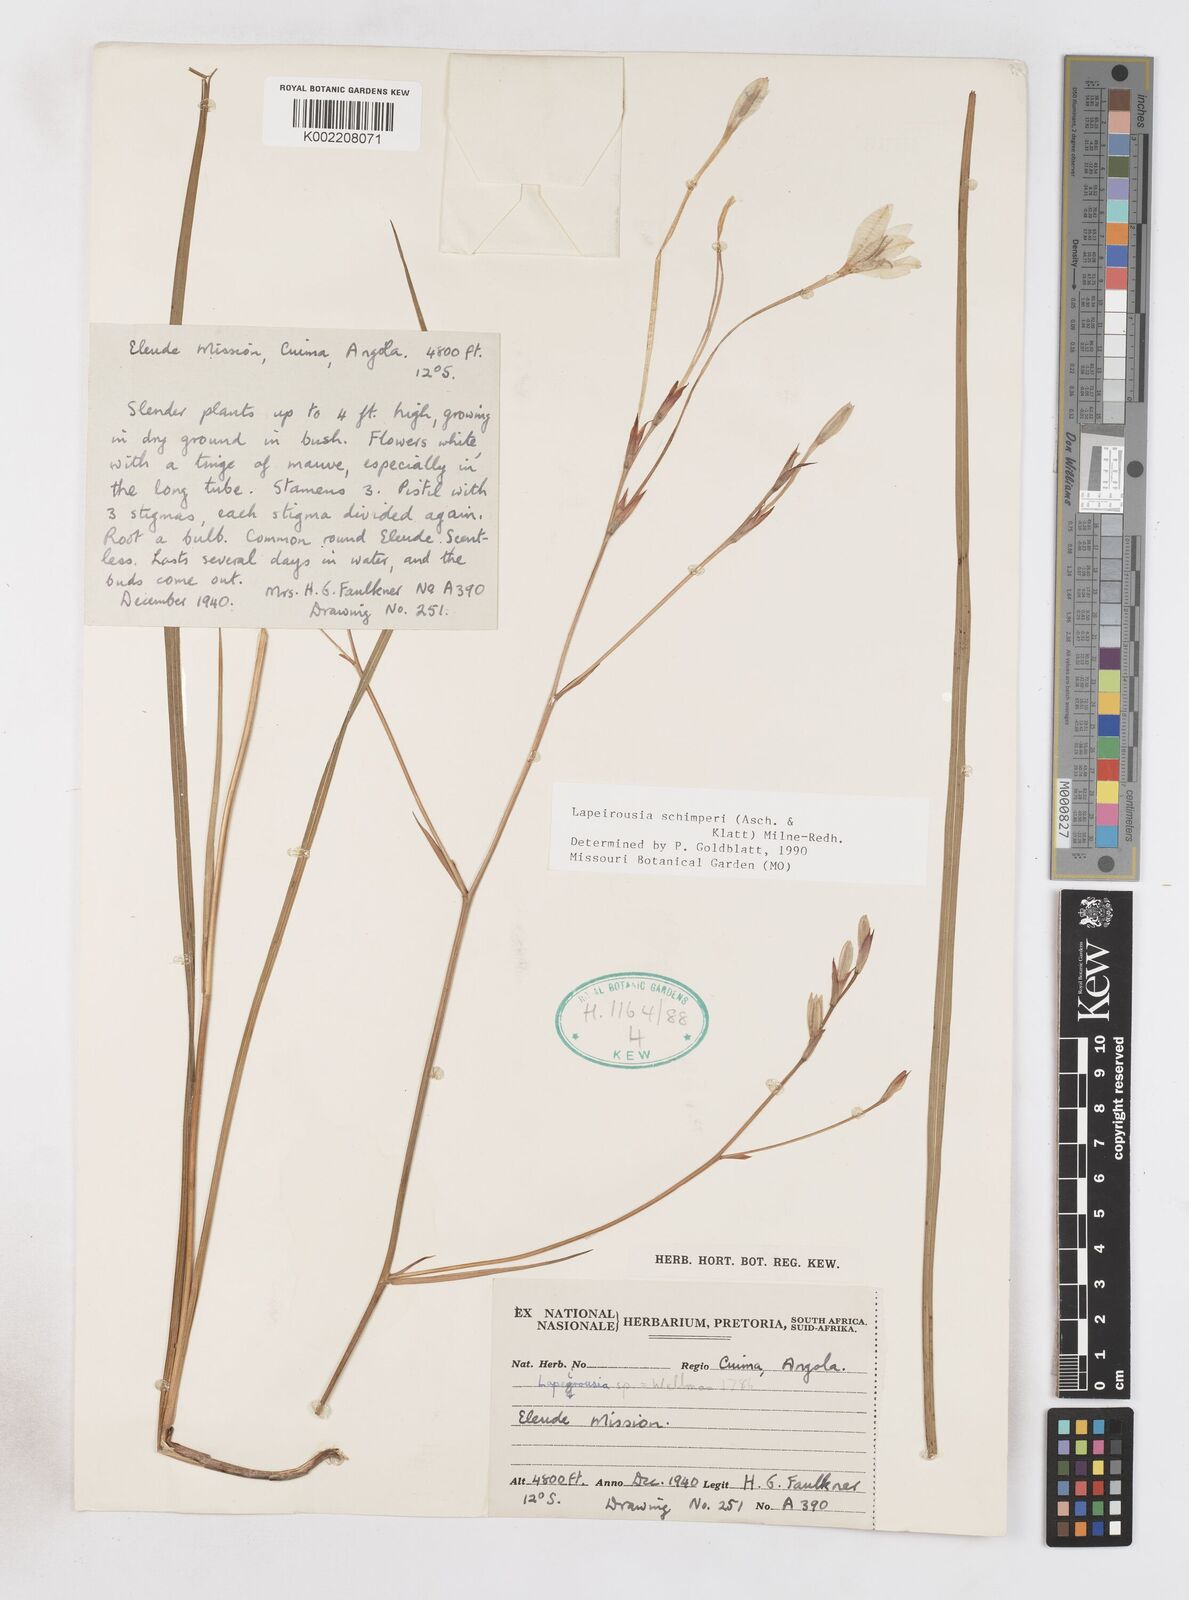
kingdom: Plantae
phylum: Tracheophyta
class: Liliopsida
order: Asparagales
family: Iridaceae
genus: Afrosolen
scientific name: Afrosolen schimperi
